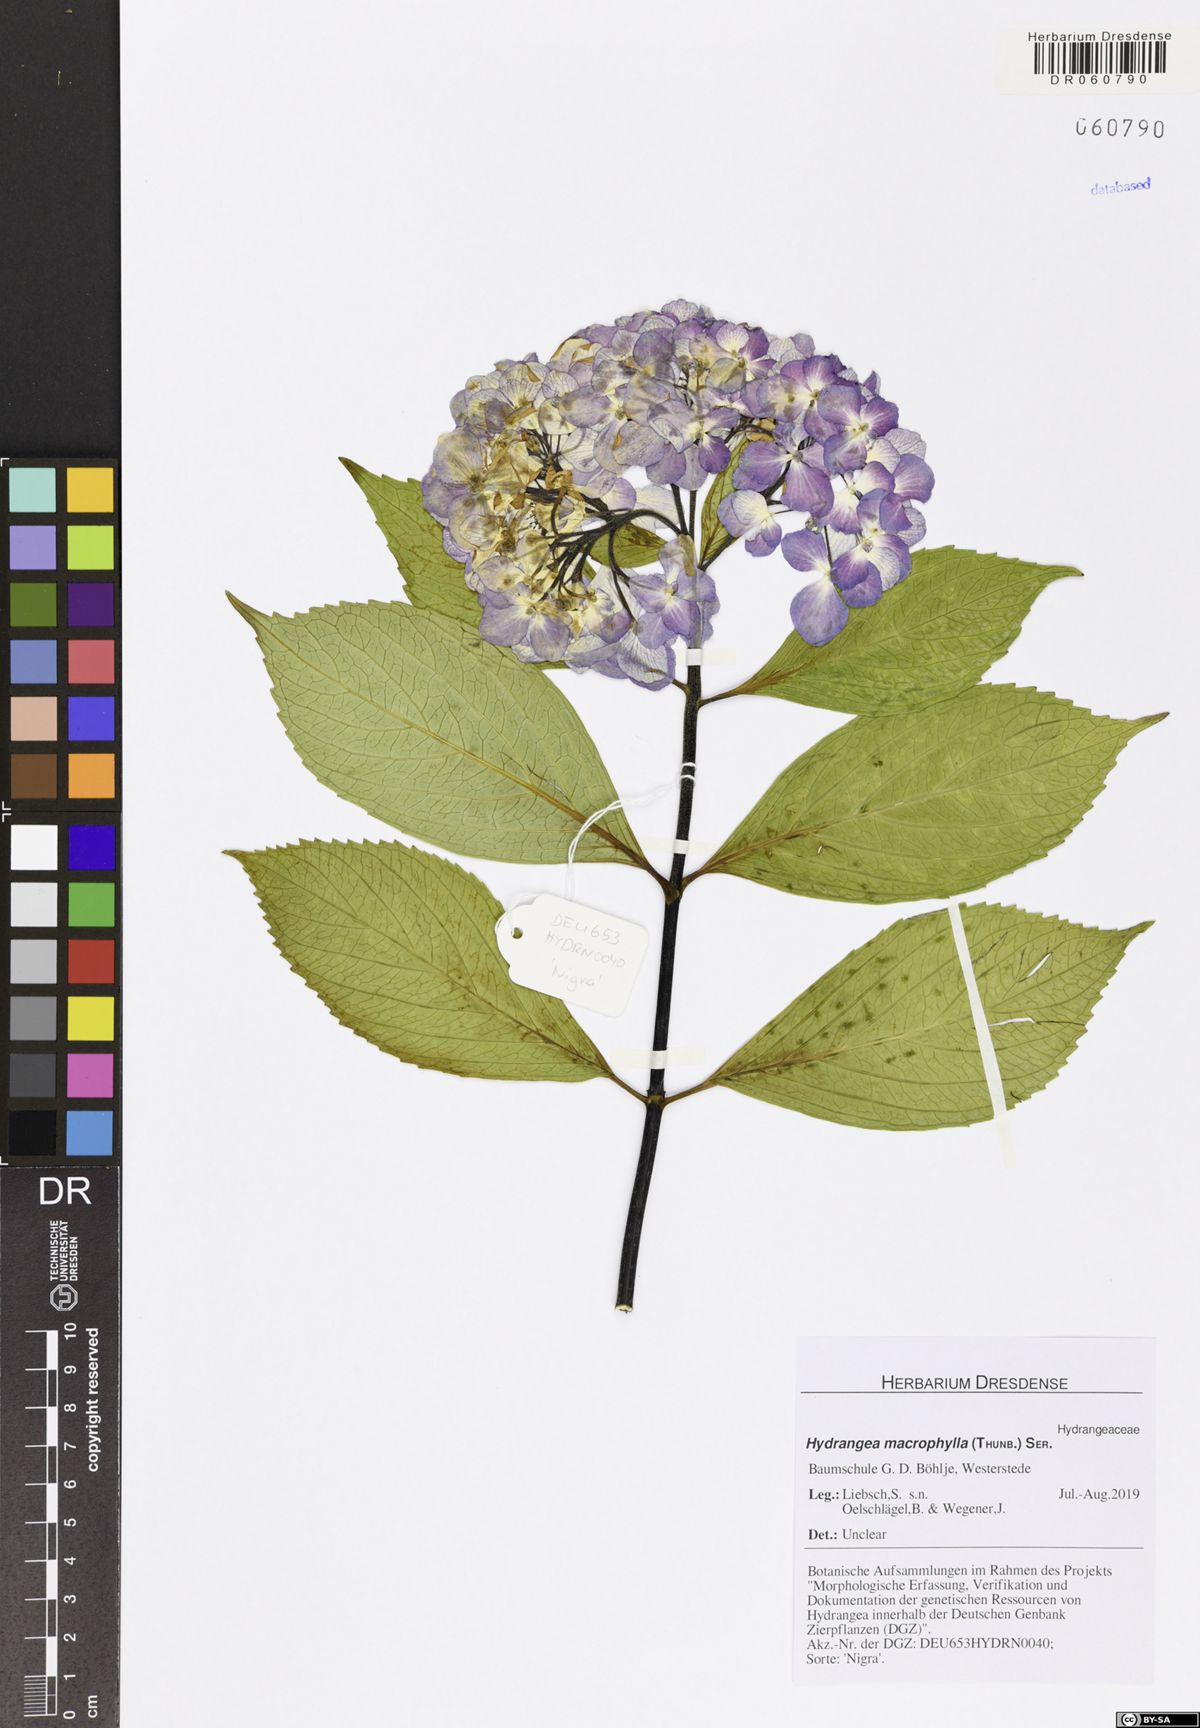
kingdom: Plantae
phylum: Tracheophyta
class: Magnoliopsida
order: Cornales
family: Hydrangeaceae
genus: Hydrangea
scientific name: Hydrangea macrophylla
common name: Hydrangea
